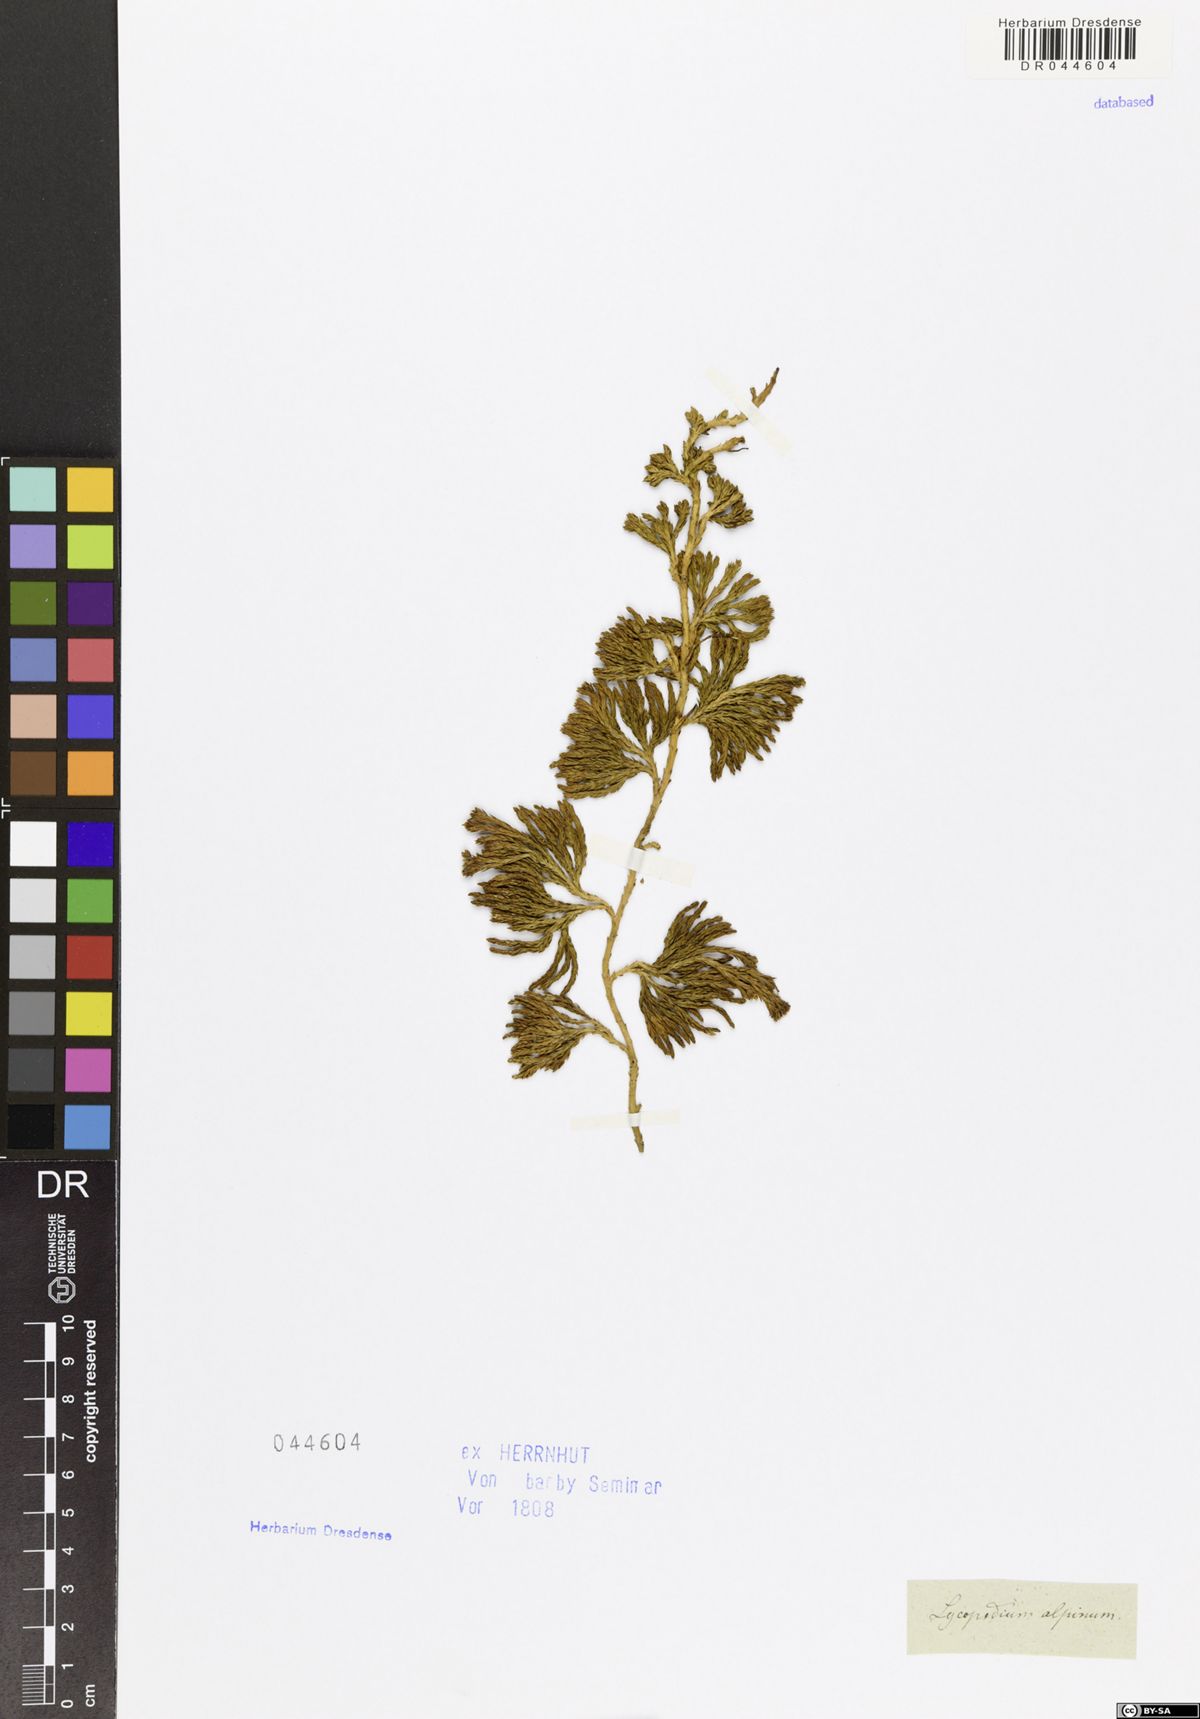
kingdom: Plantae
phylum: Tracheophyta
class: Lycopodiopsida
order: Lycopodiales
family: Lycopodiaceae
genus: Diphasiastrum
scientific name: Diphasiastrum alpinum
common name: Alpine clubmoss
